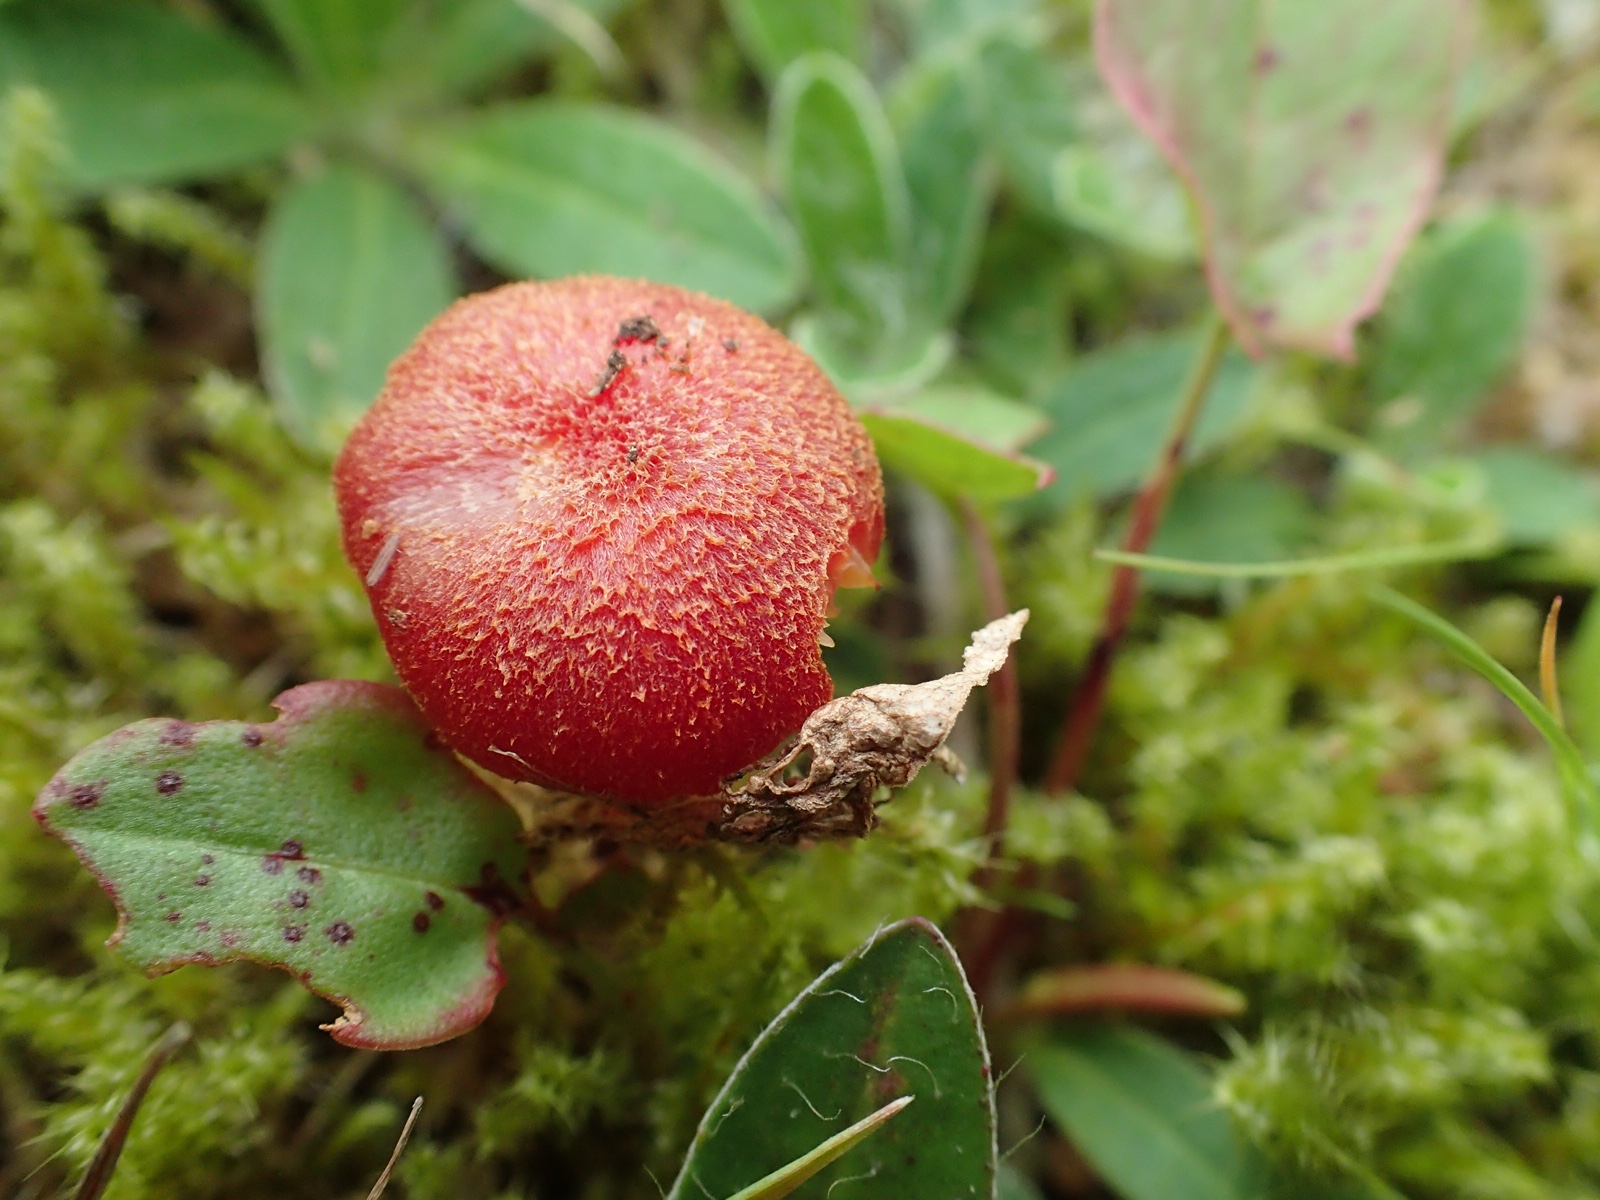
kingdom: Fungi
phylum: Basidiomycota
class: Agaricomycetes
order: Agaricales
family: Hygrophoraceae
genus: Hygrocybe
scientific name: Hygrocybe helobia
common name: hvidløgs-vokshat
